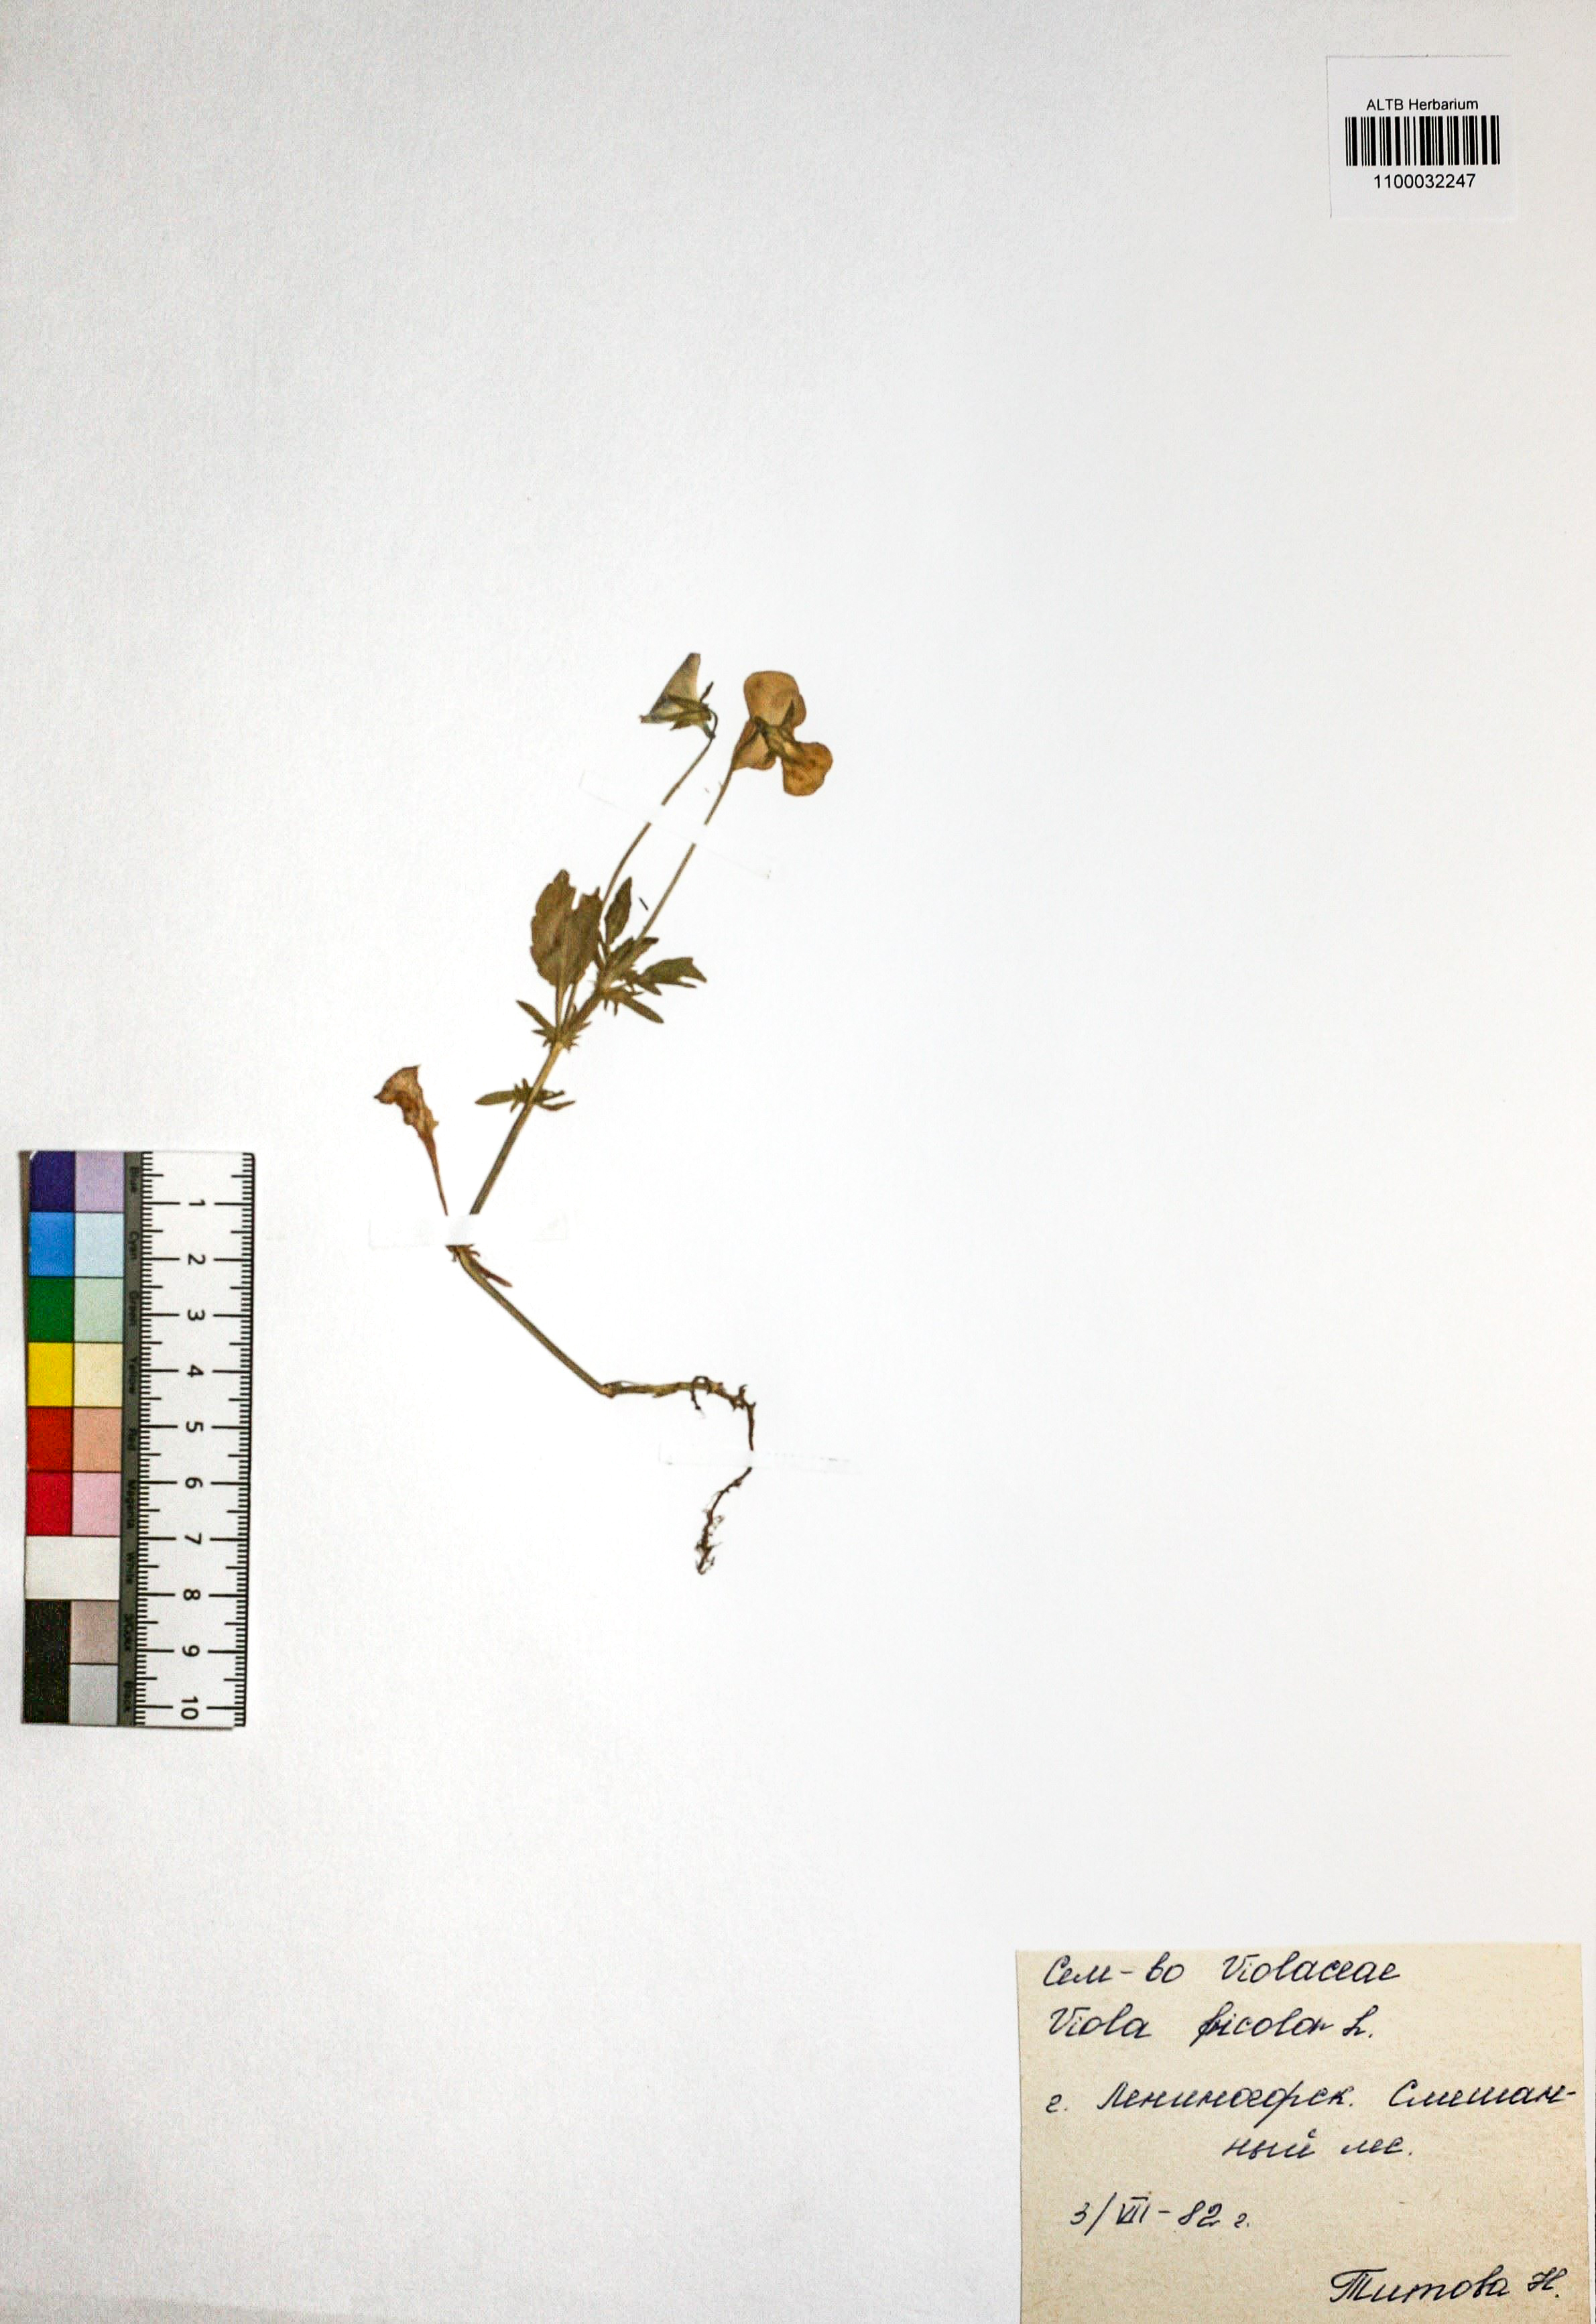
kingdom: Plantae
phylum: Tracheophyta
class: Magnoliopsida
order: Malpighiales
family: Violaceae
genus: Viola
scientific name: Viola tricolor
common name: Pansy
